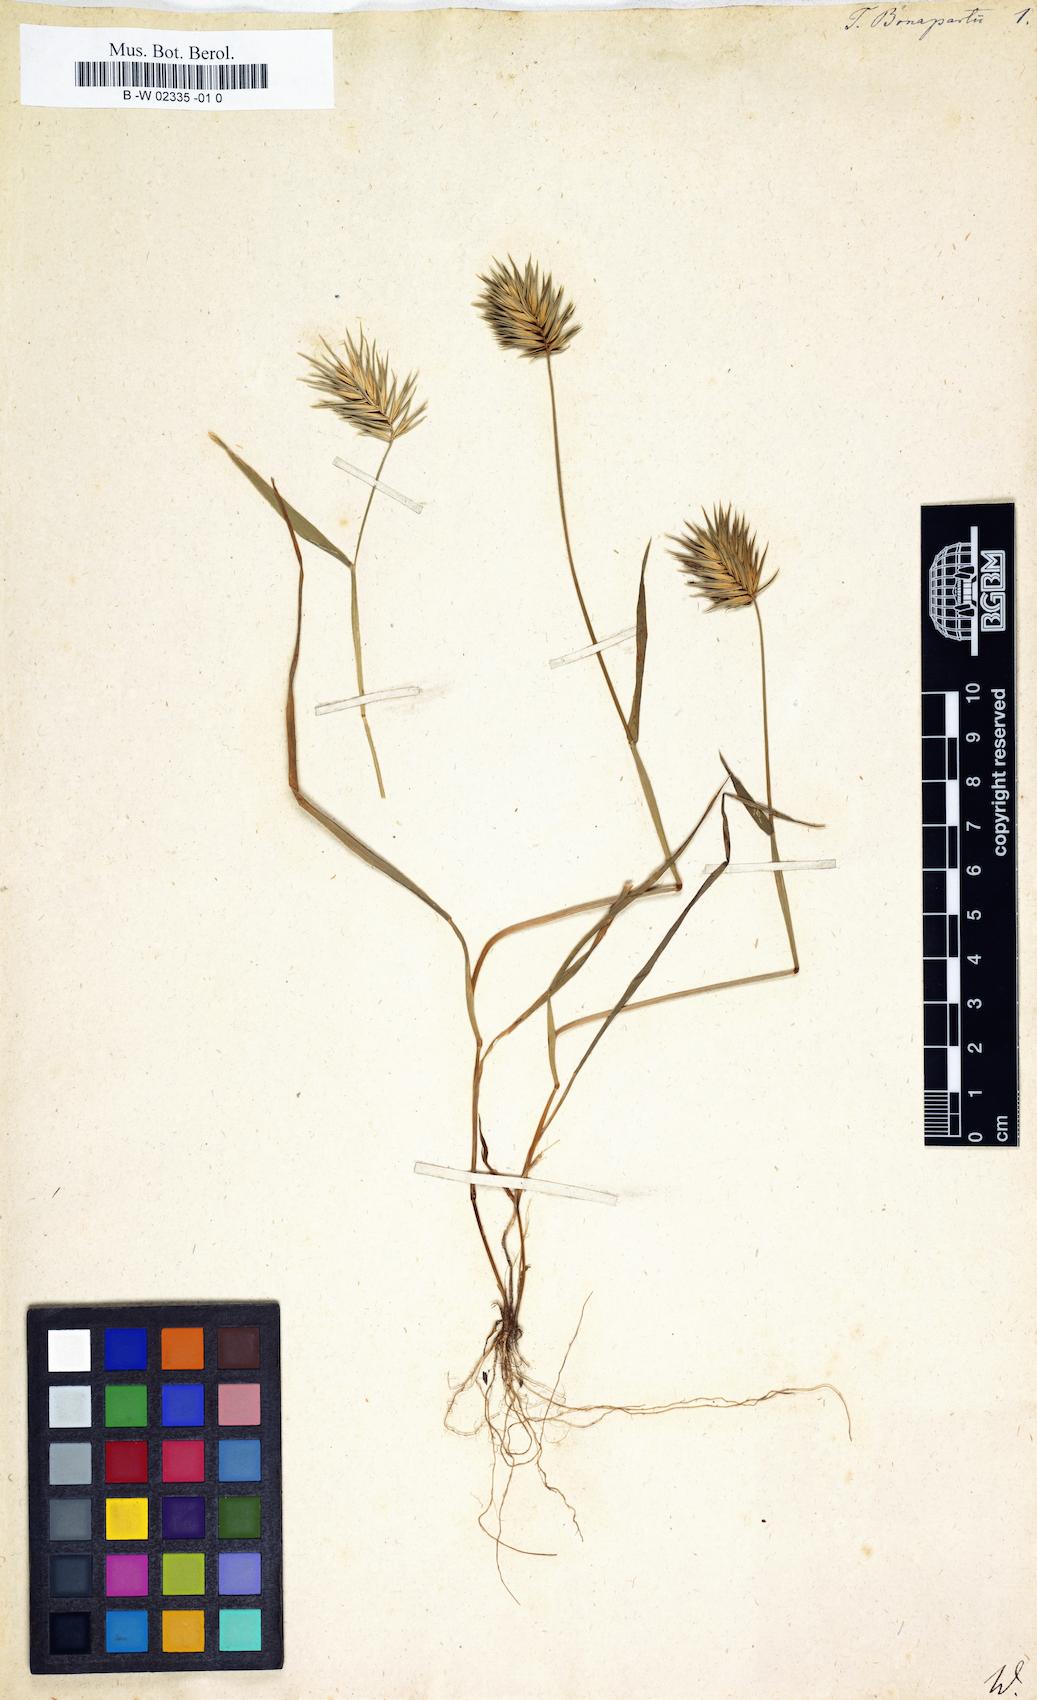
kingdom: Plantae
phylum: Tracheophyta
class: Liliopsida
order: Poales
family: Poaceae
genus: Eremopyrum
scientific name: Eremopyrum bonaepartis
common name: Tapertip false wheatgrass
